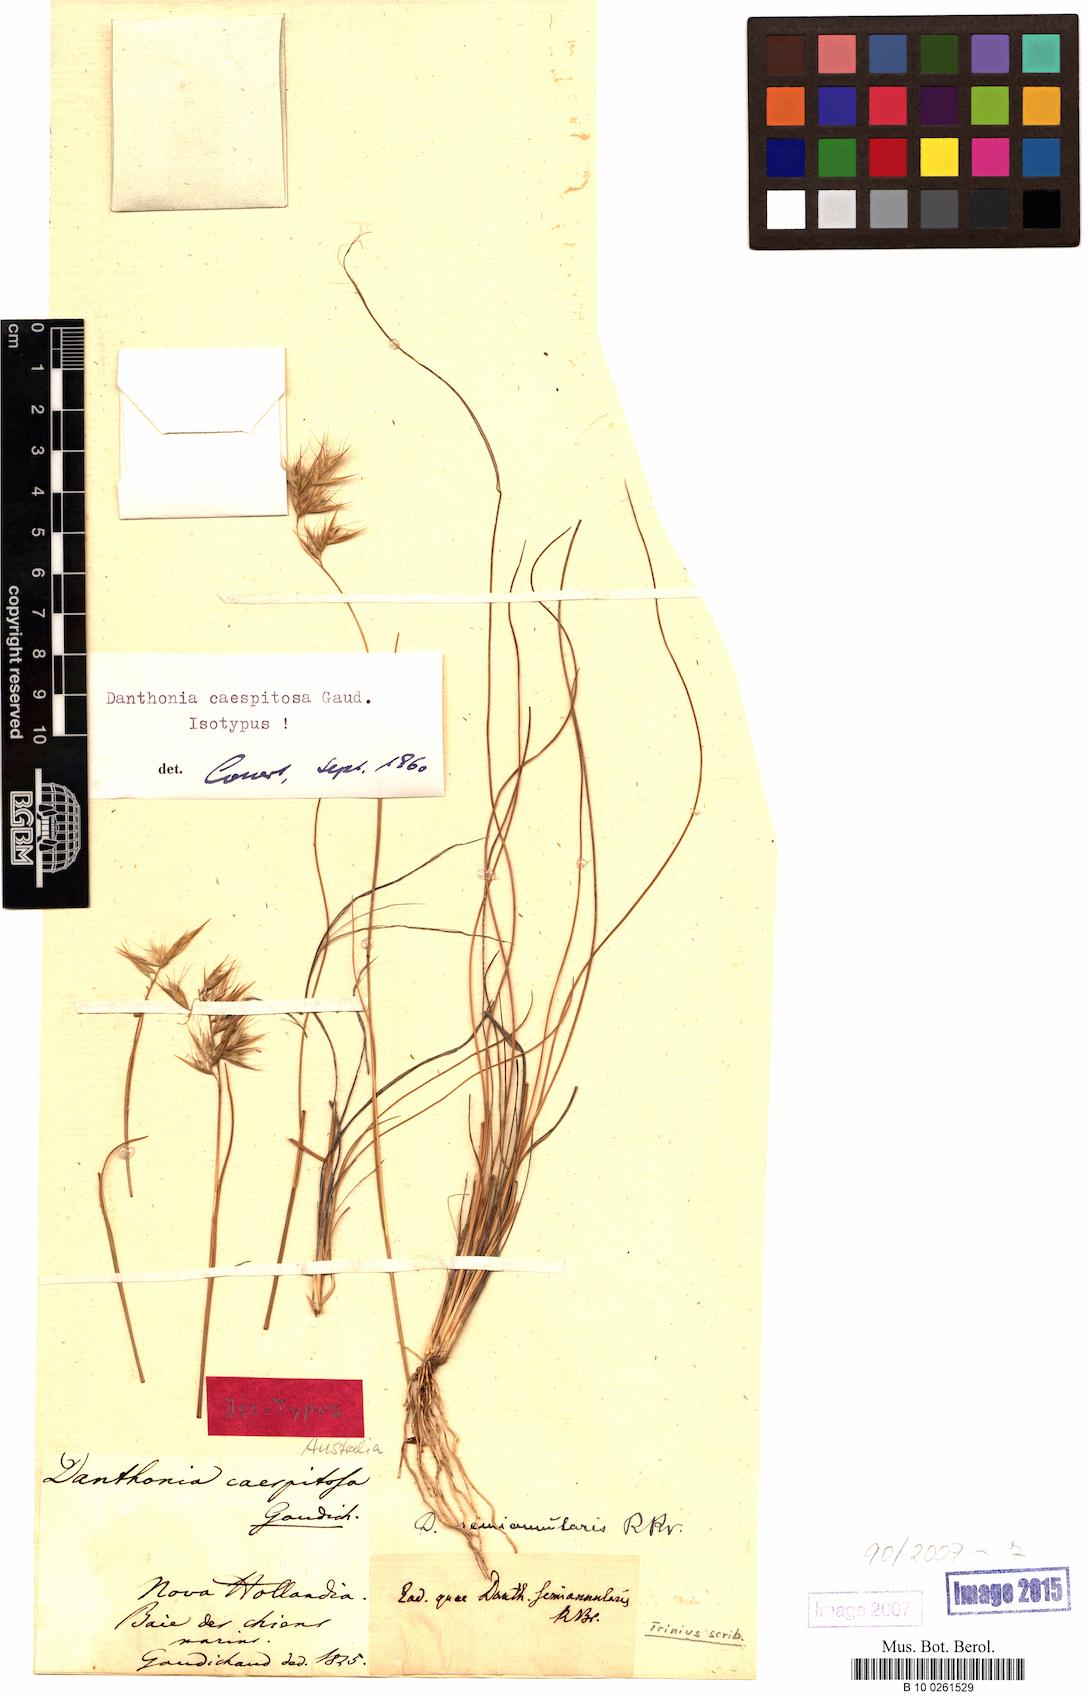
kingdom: Plantae
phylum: Tracheophyta
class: Liliopsida
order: Poales
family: Poaceae
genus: Rytidosperma
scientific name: Rytidosperma caespitosum
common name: Tufted wallaby grass
